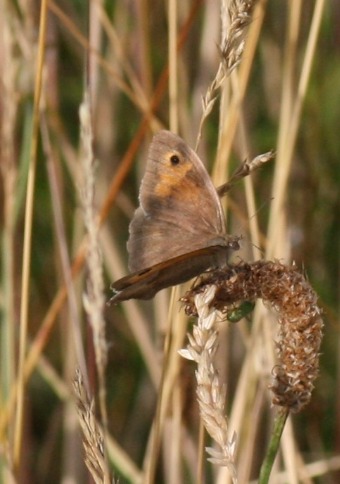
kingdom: Animalia
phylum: Arthropoda
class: Insecta
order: Lepidoptera
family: Nymphalidae
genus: Maniola
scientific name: Maniola jurtina
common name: Græsrandøje
